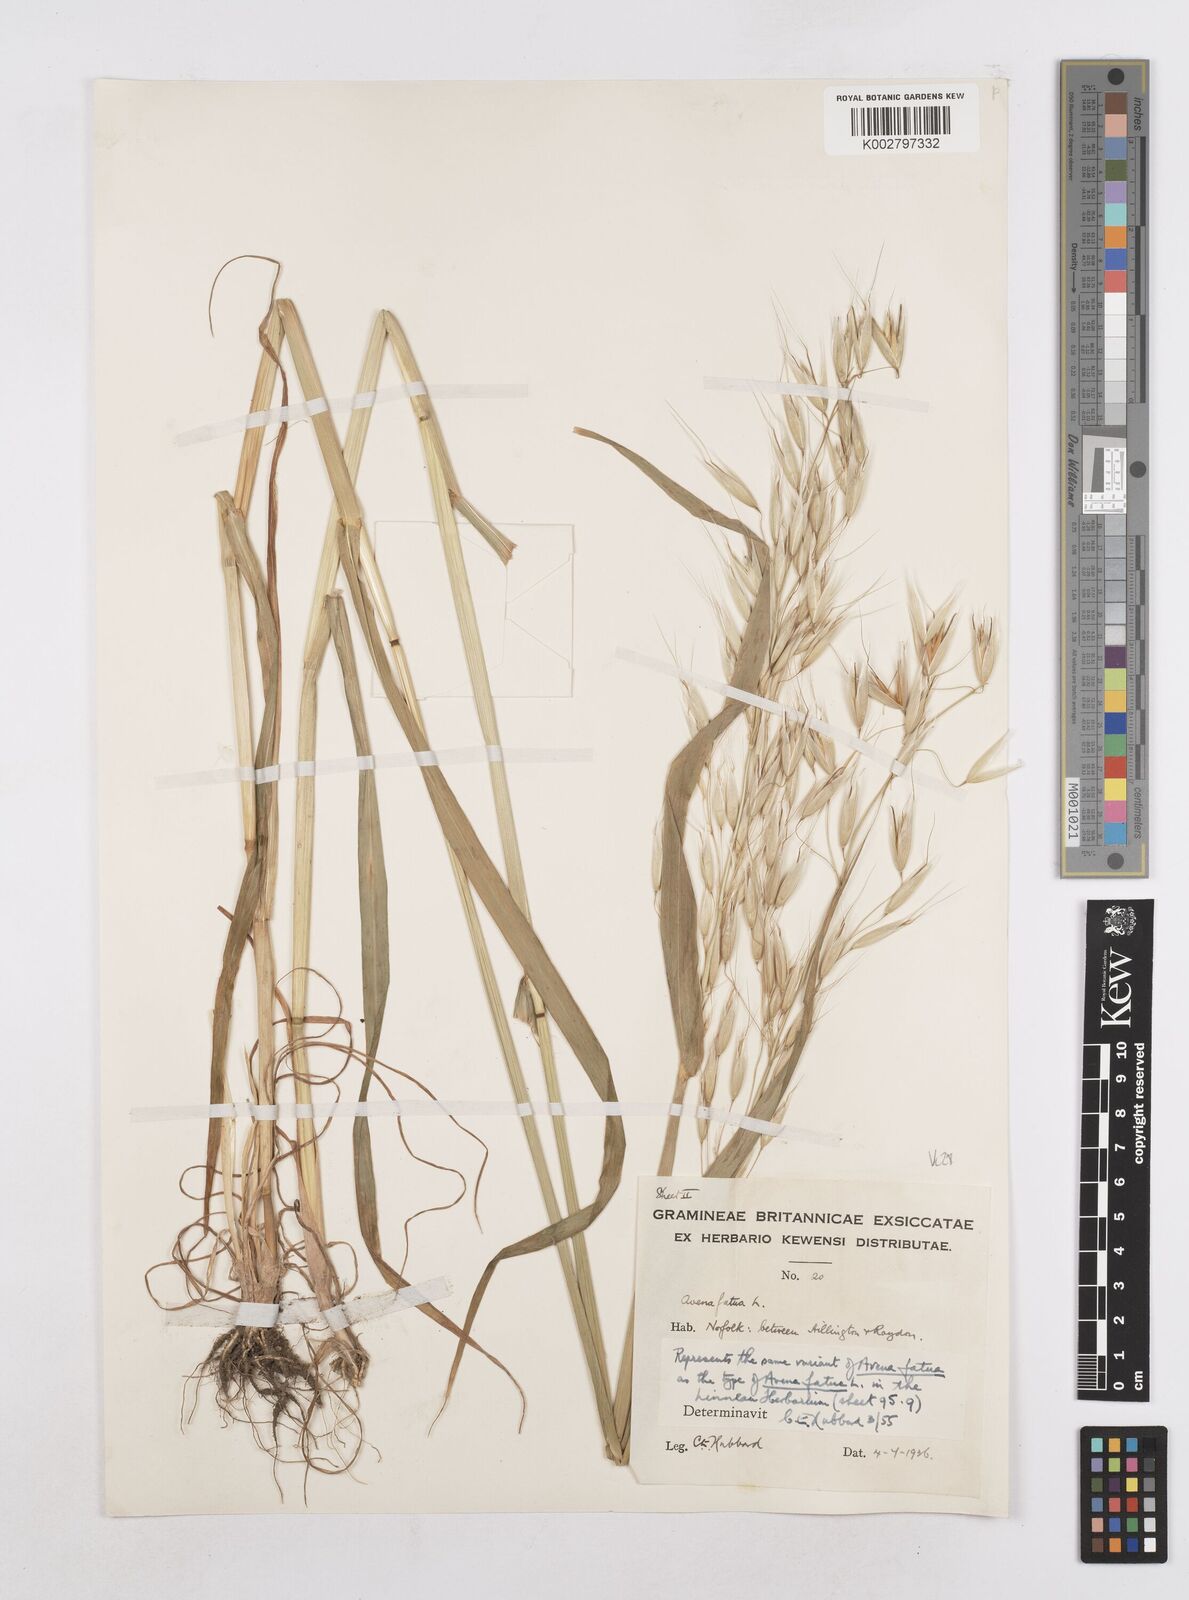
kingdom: Plantae
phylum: Tracheophyta
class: Liliopsida
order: Poales
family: Poaceae
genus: Avena
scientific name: Avena fatua
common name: Wild oat
